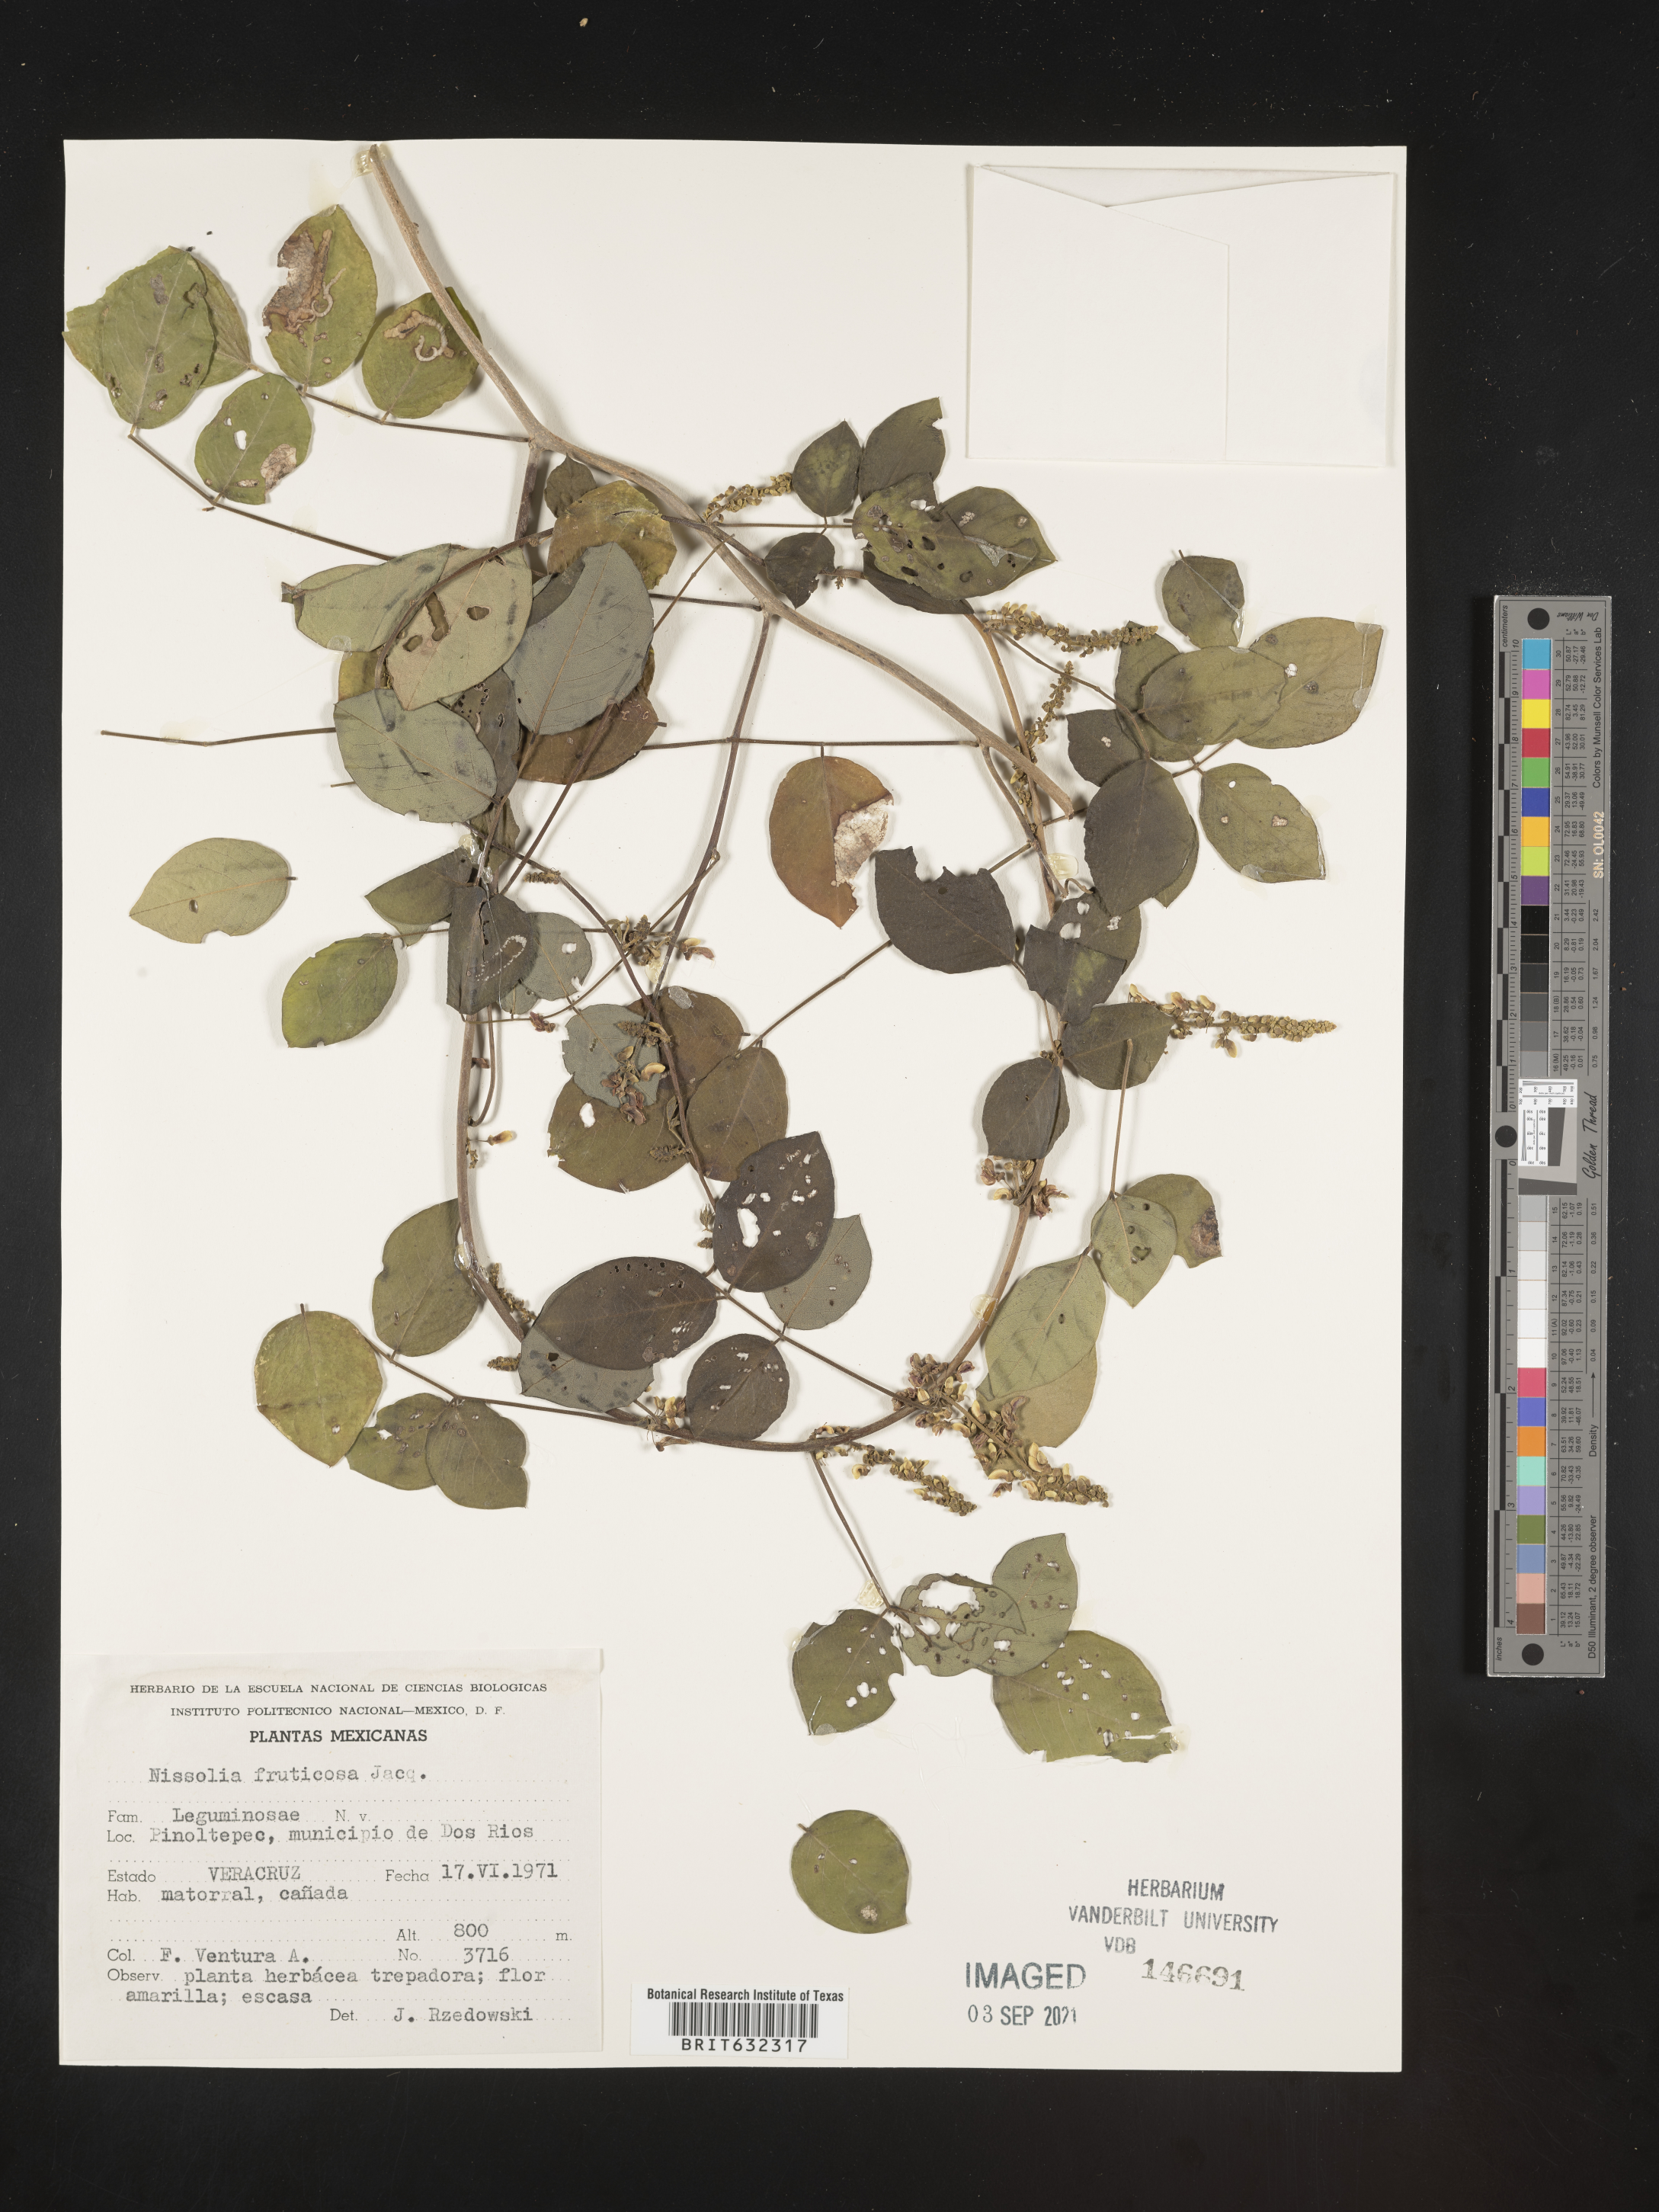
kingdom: Plantae
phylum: Tracheophyta
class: Magnoliopsida
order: Fabales
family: Fabaceae
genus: Nissolia
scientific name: Nissolia
